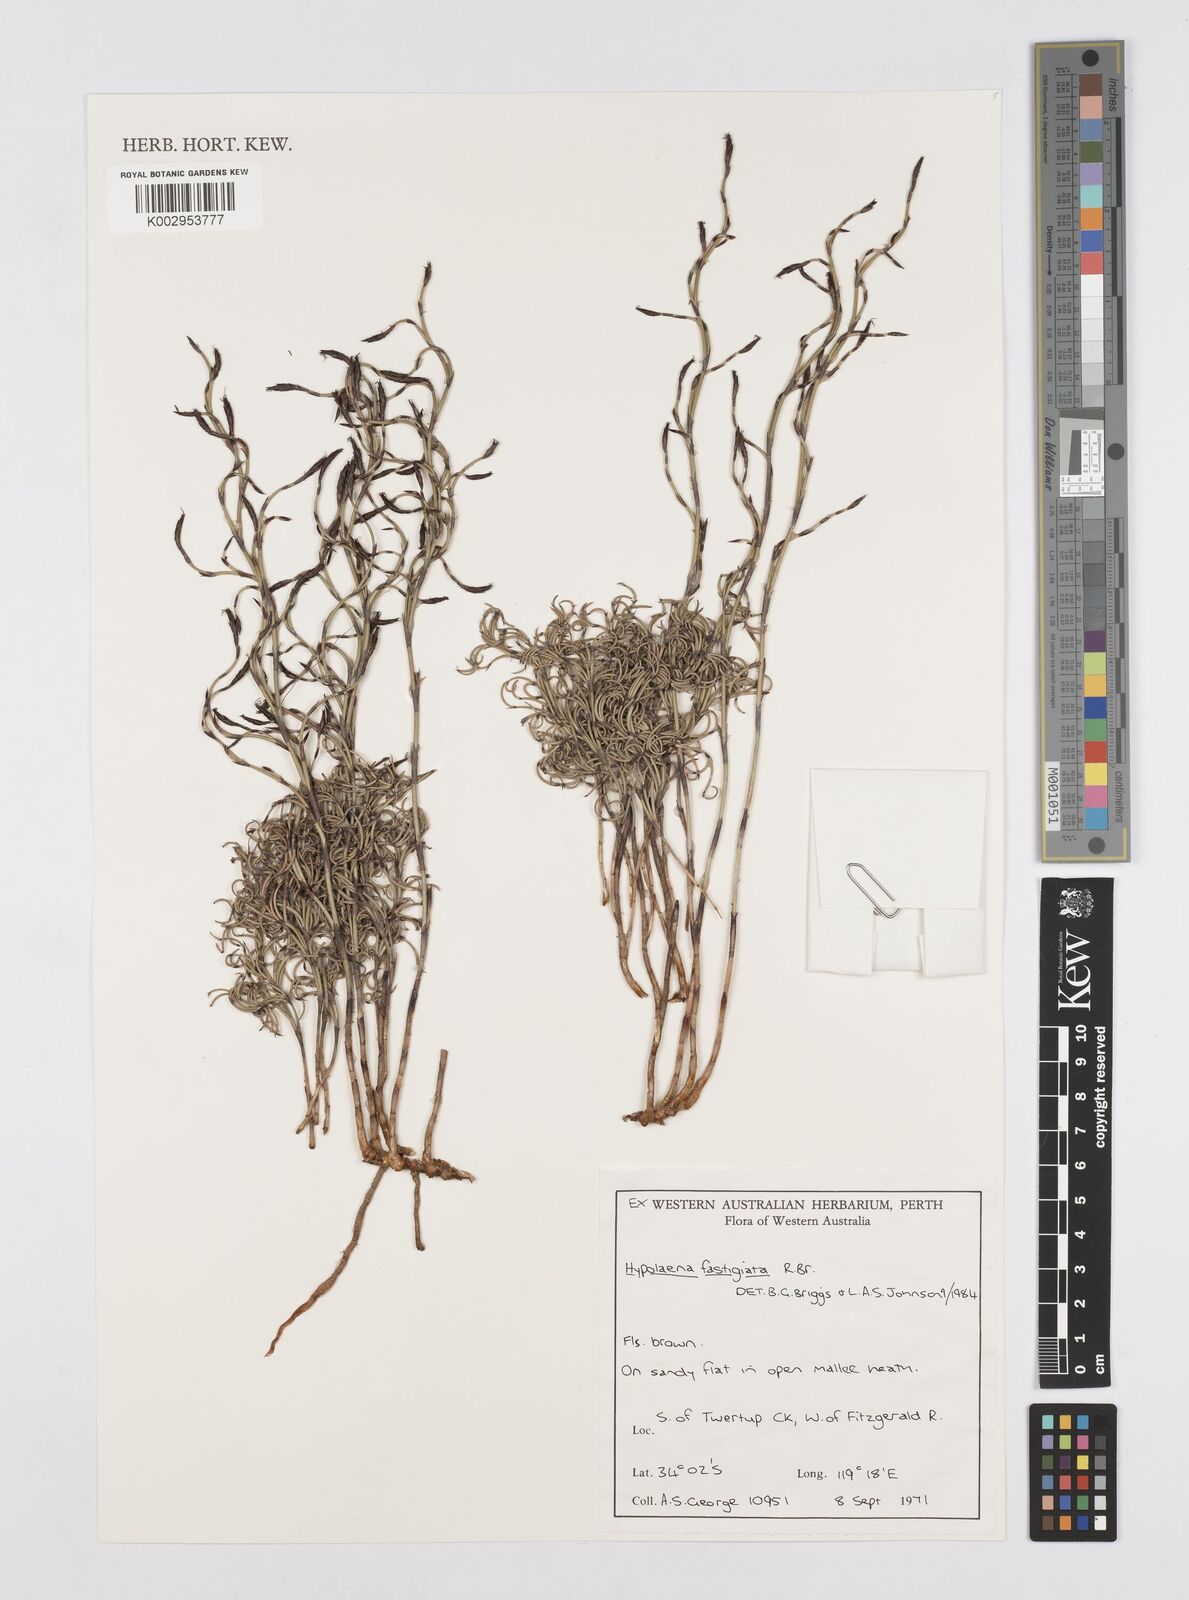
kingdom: Plantae
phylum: Tracheophyta
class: Liliopsida
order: Poales
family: Restionaceae
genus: Hypolaena
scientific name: Hypolaena fastigiata
